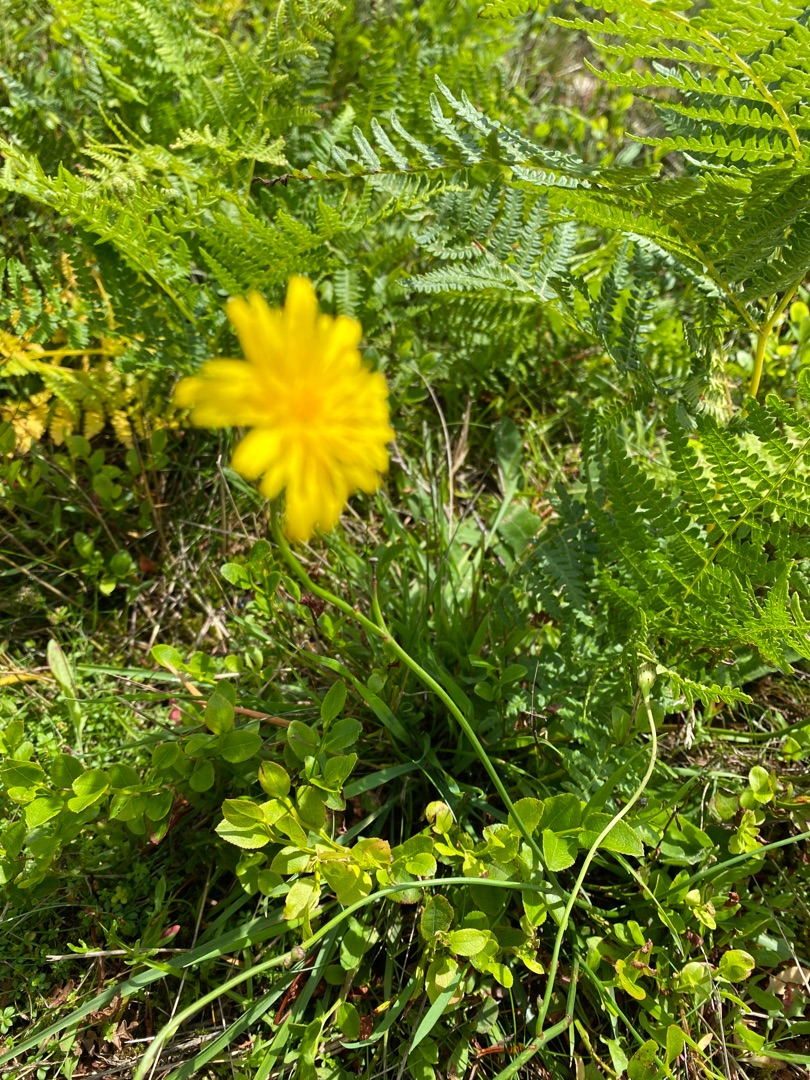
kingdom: Plantae
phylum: Tracheophyta
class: Magnoliopsida
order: Asterales
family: Asteraceae
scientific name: Asteraceae
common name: Kurvblomstfamilien
